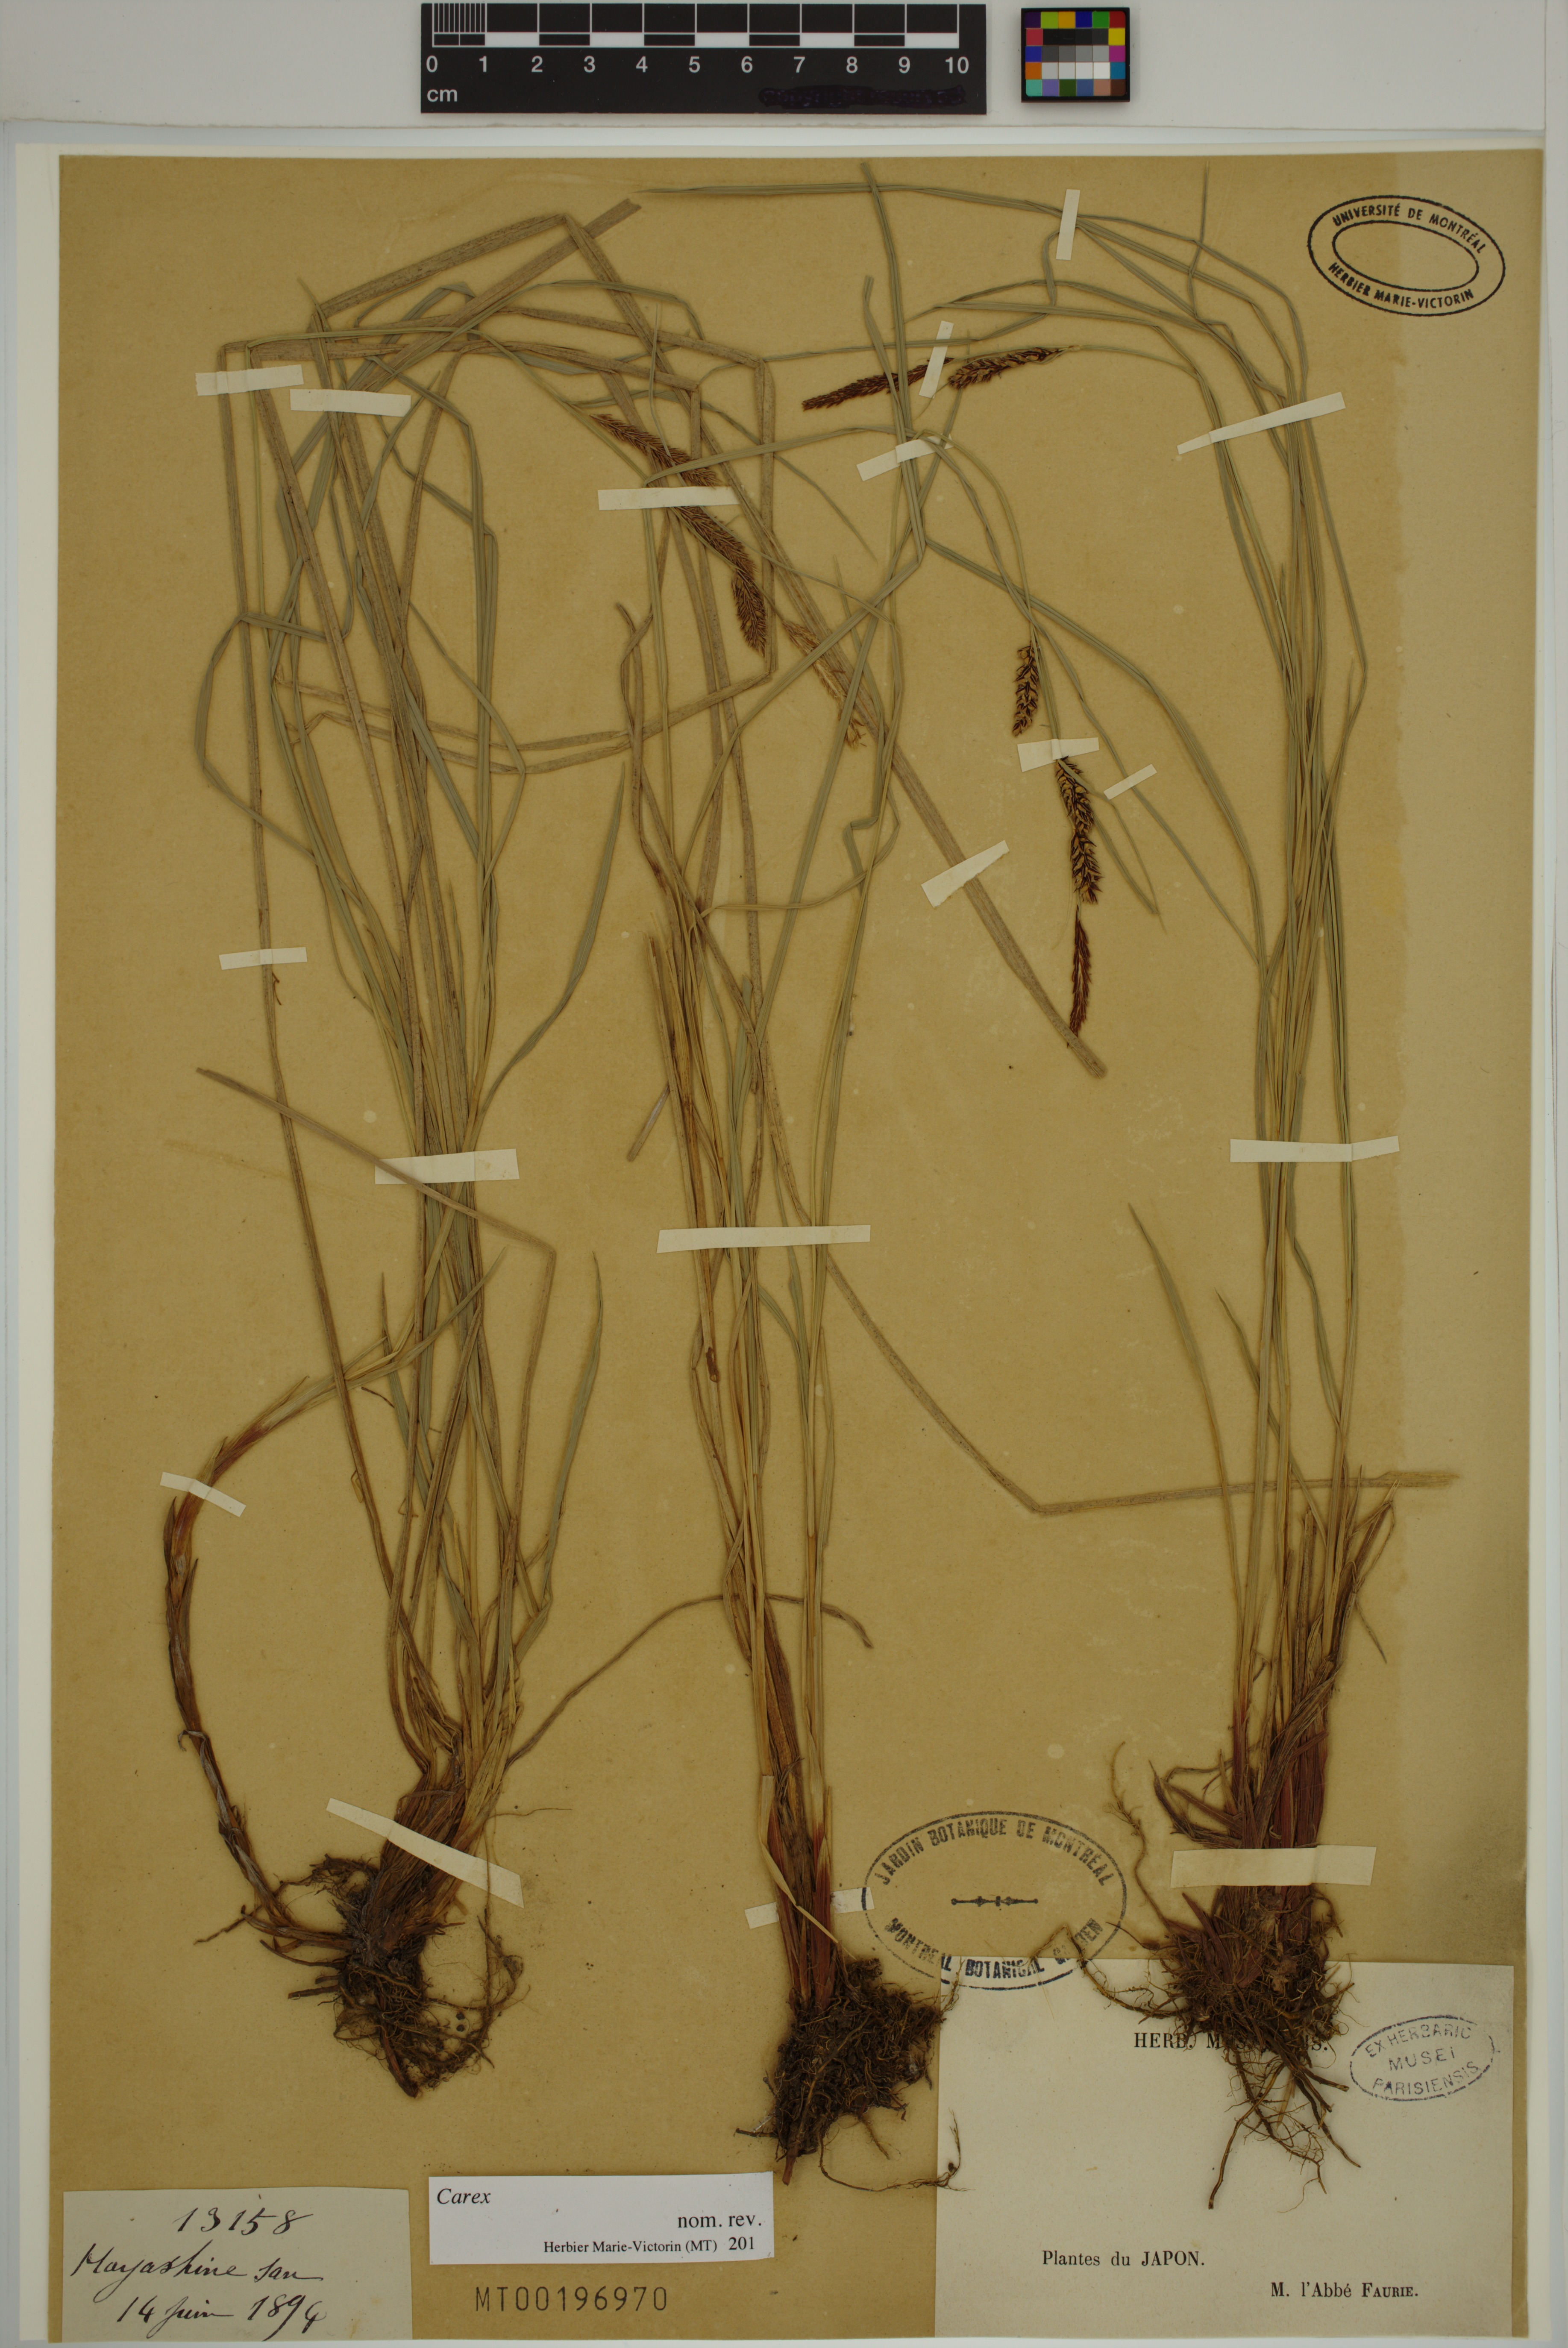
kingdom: Plantae
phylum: Tracheophyta
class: Liliopsida
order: Poales
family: Cyperaceae
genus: Carex
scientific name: Carex
